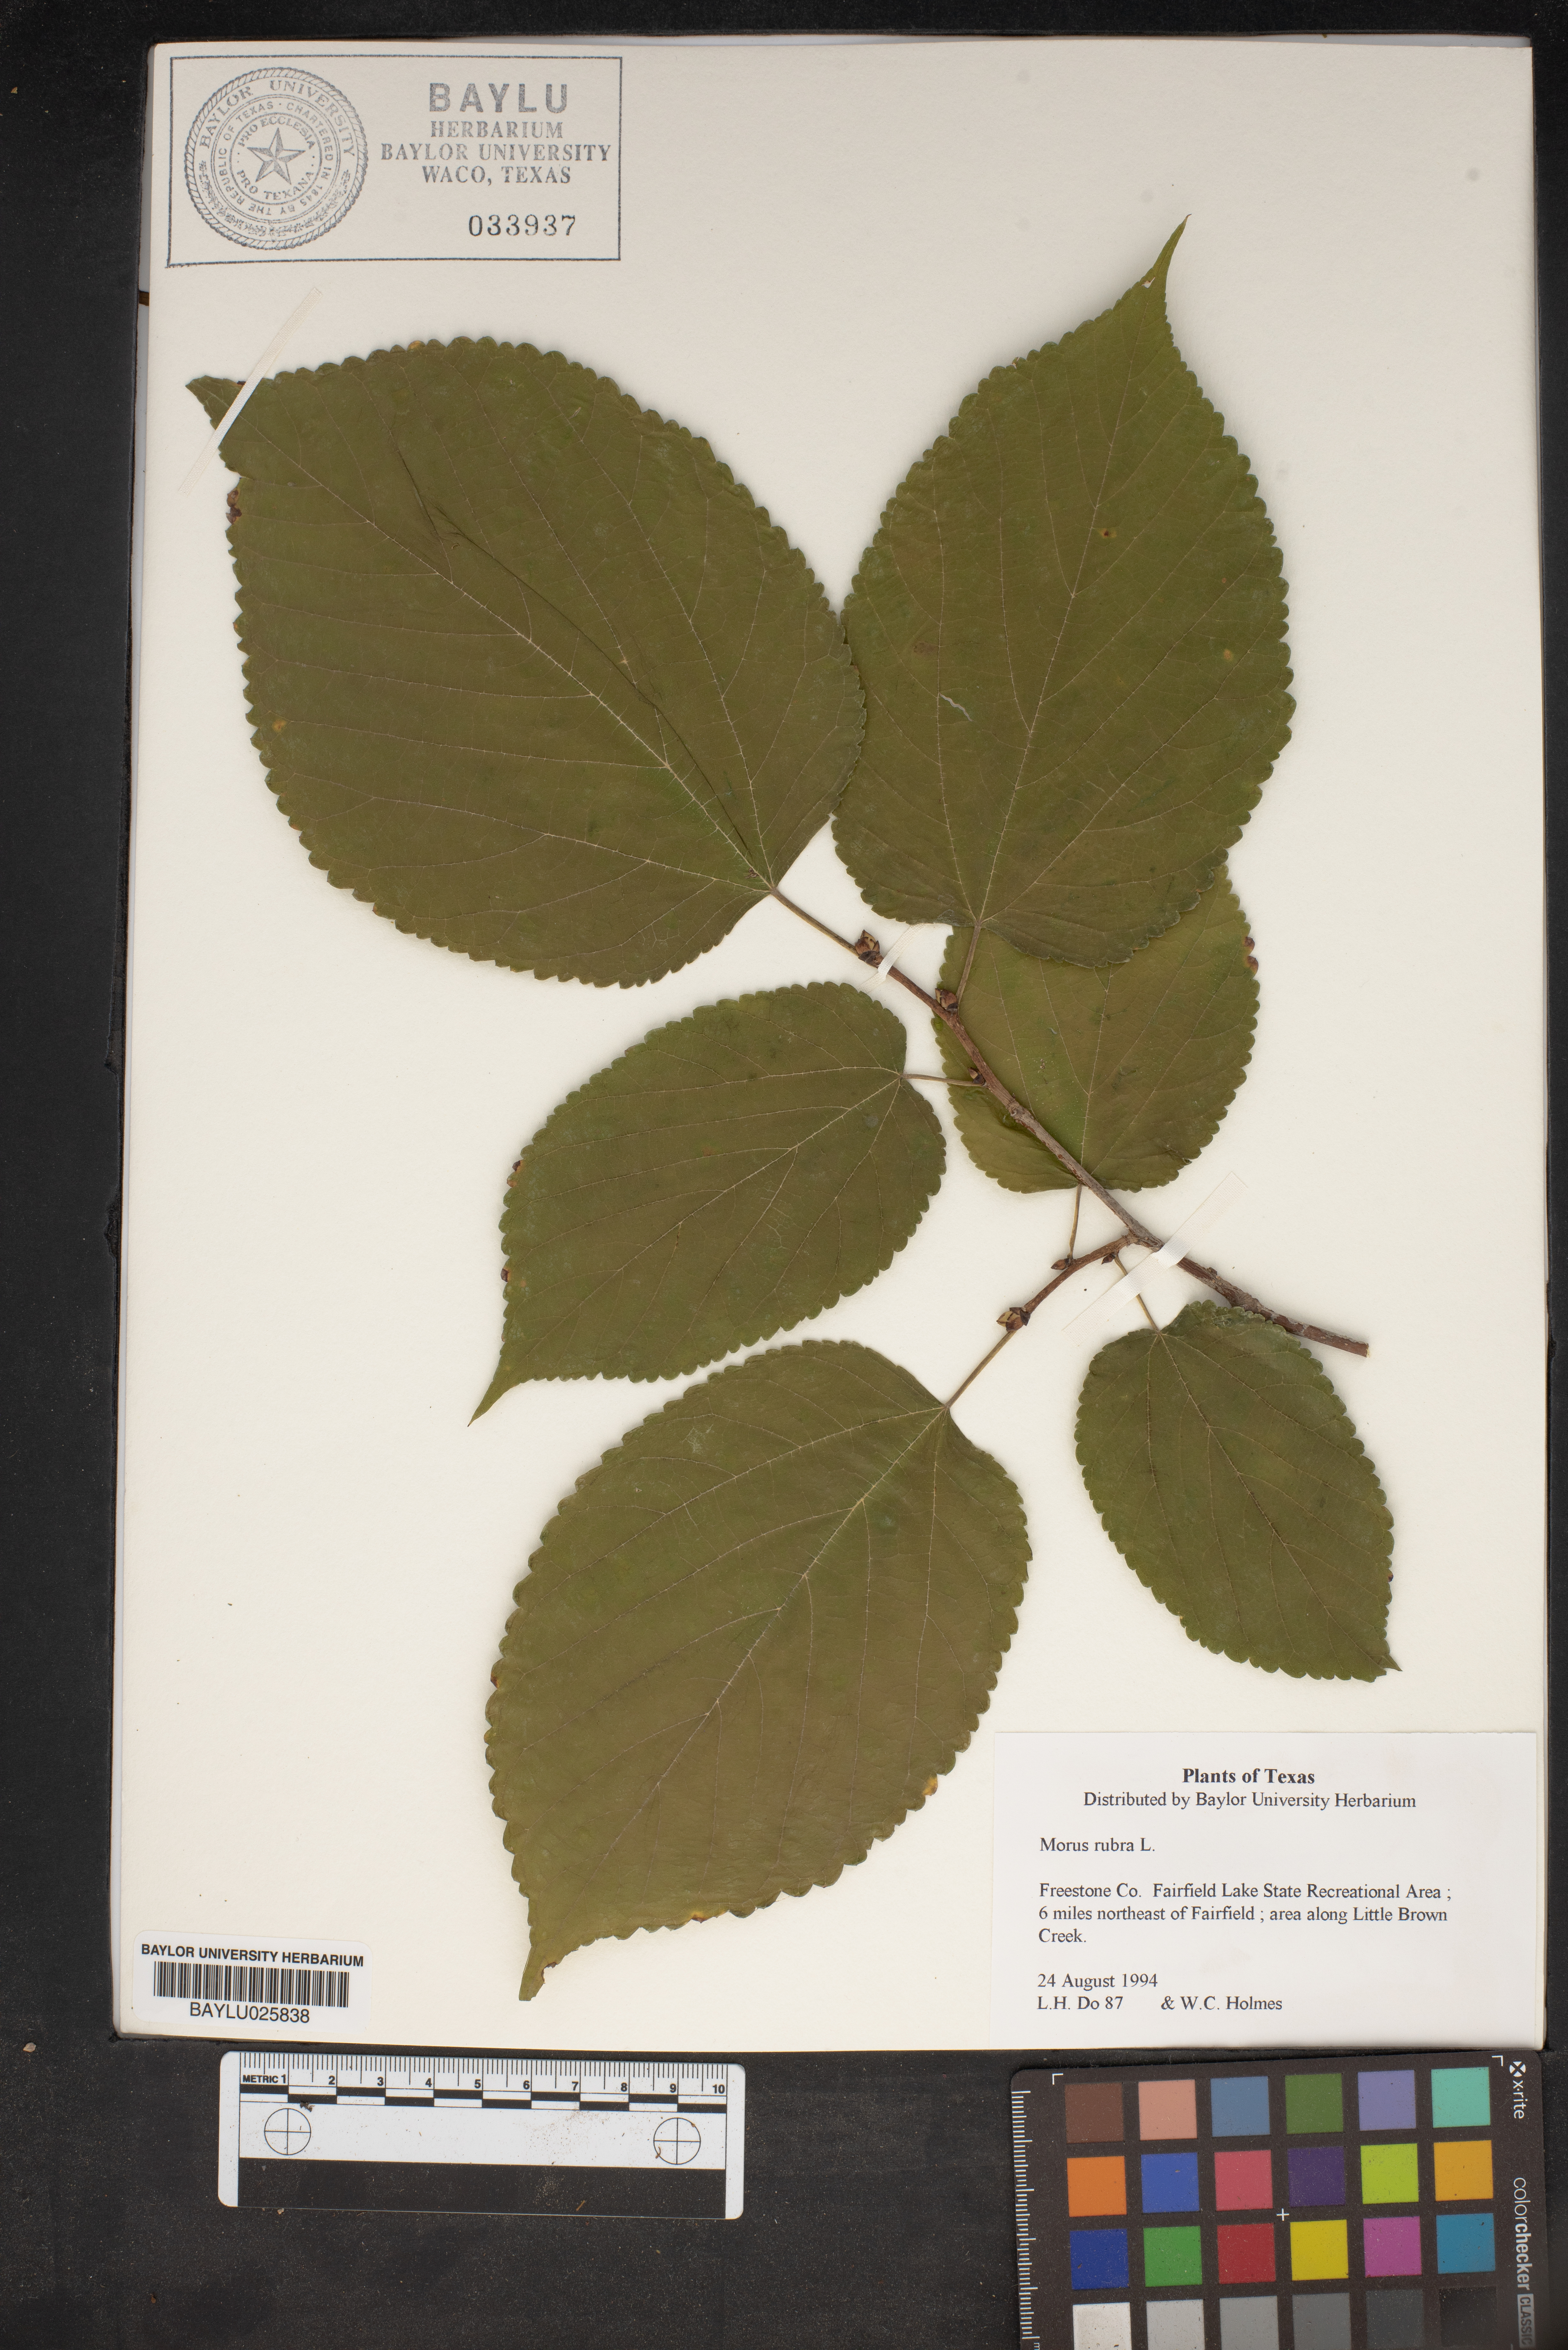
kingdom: Plantae
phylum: Tracheophyta
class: Magnoliopsida
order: Rosales
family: Moraceae
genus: Morus
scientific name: Morus rubra
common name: Red mulberry
